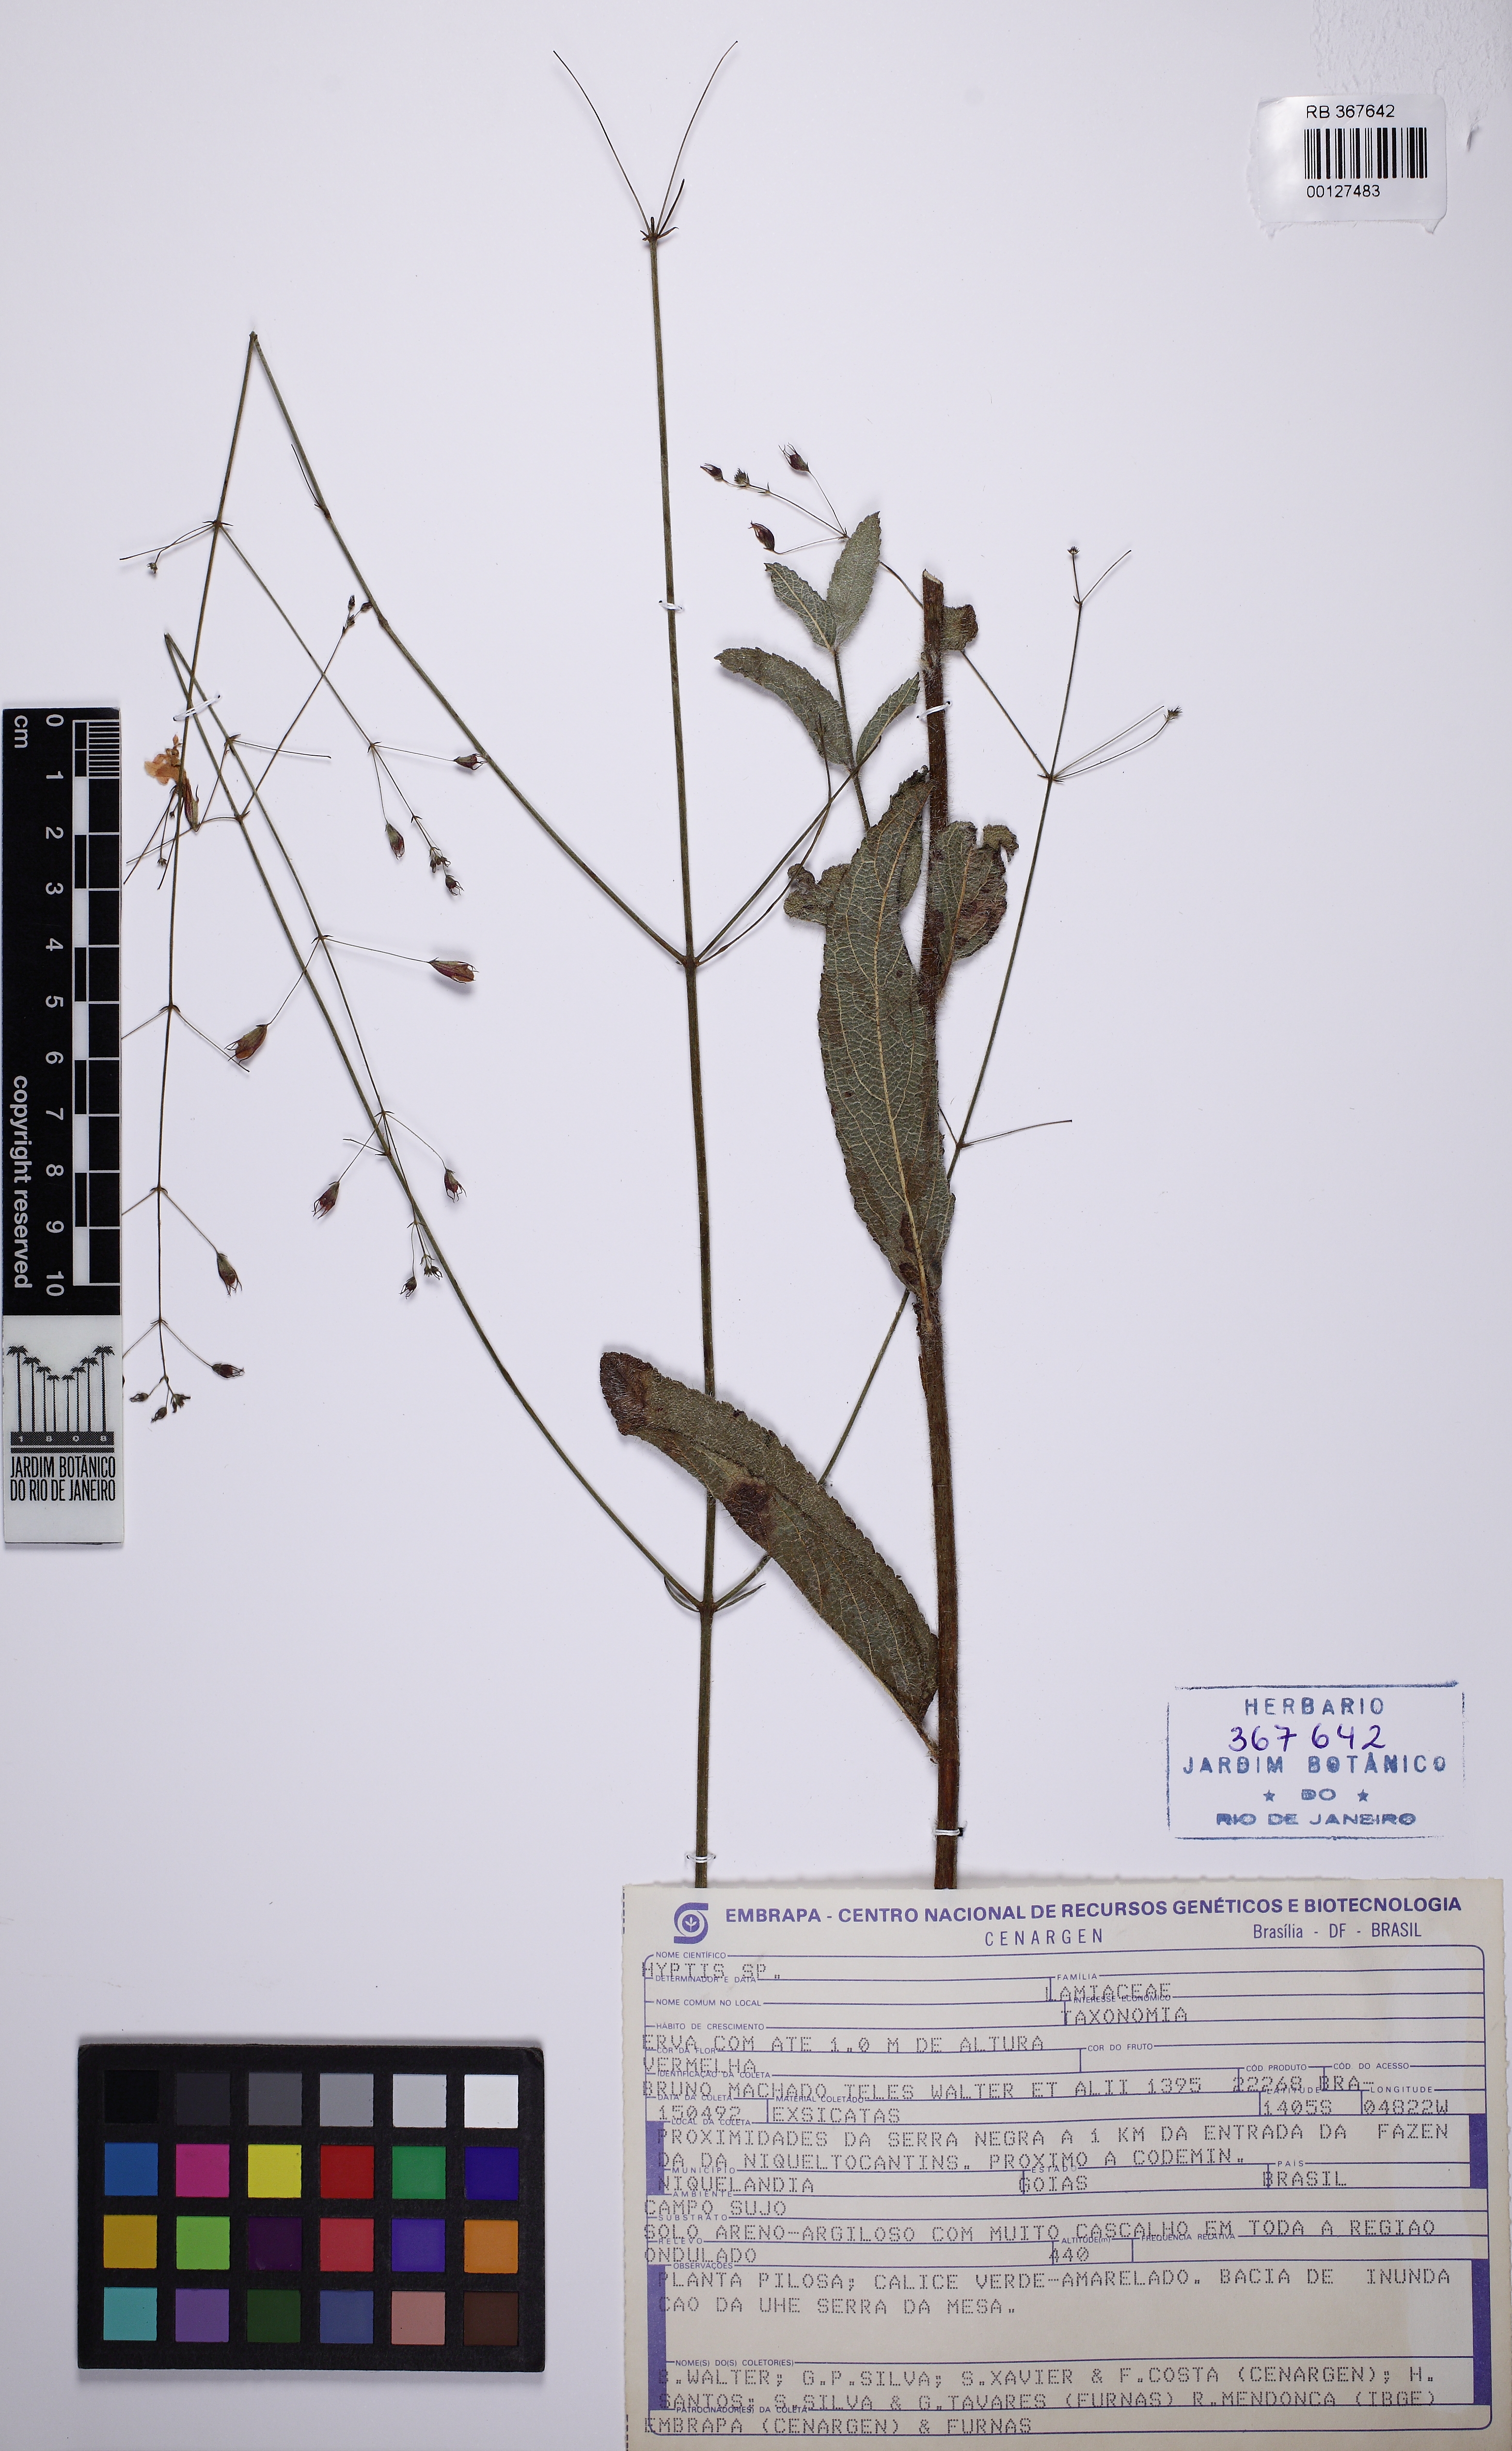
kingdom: Plantae
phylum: Tracheophyta
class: Magnoliopsida
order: Lamiales
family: Lamiaceae
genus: Hypenia
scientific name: Hypenia
